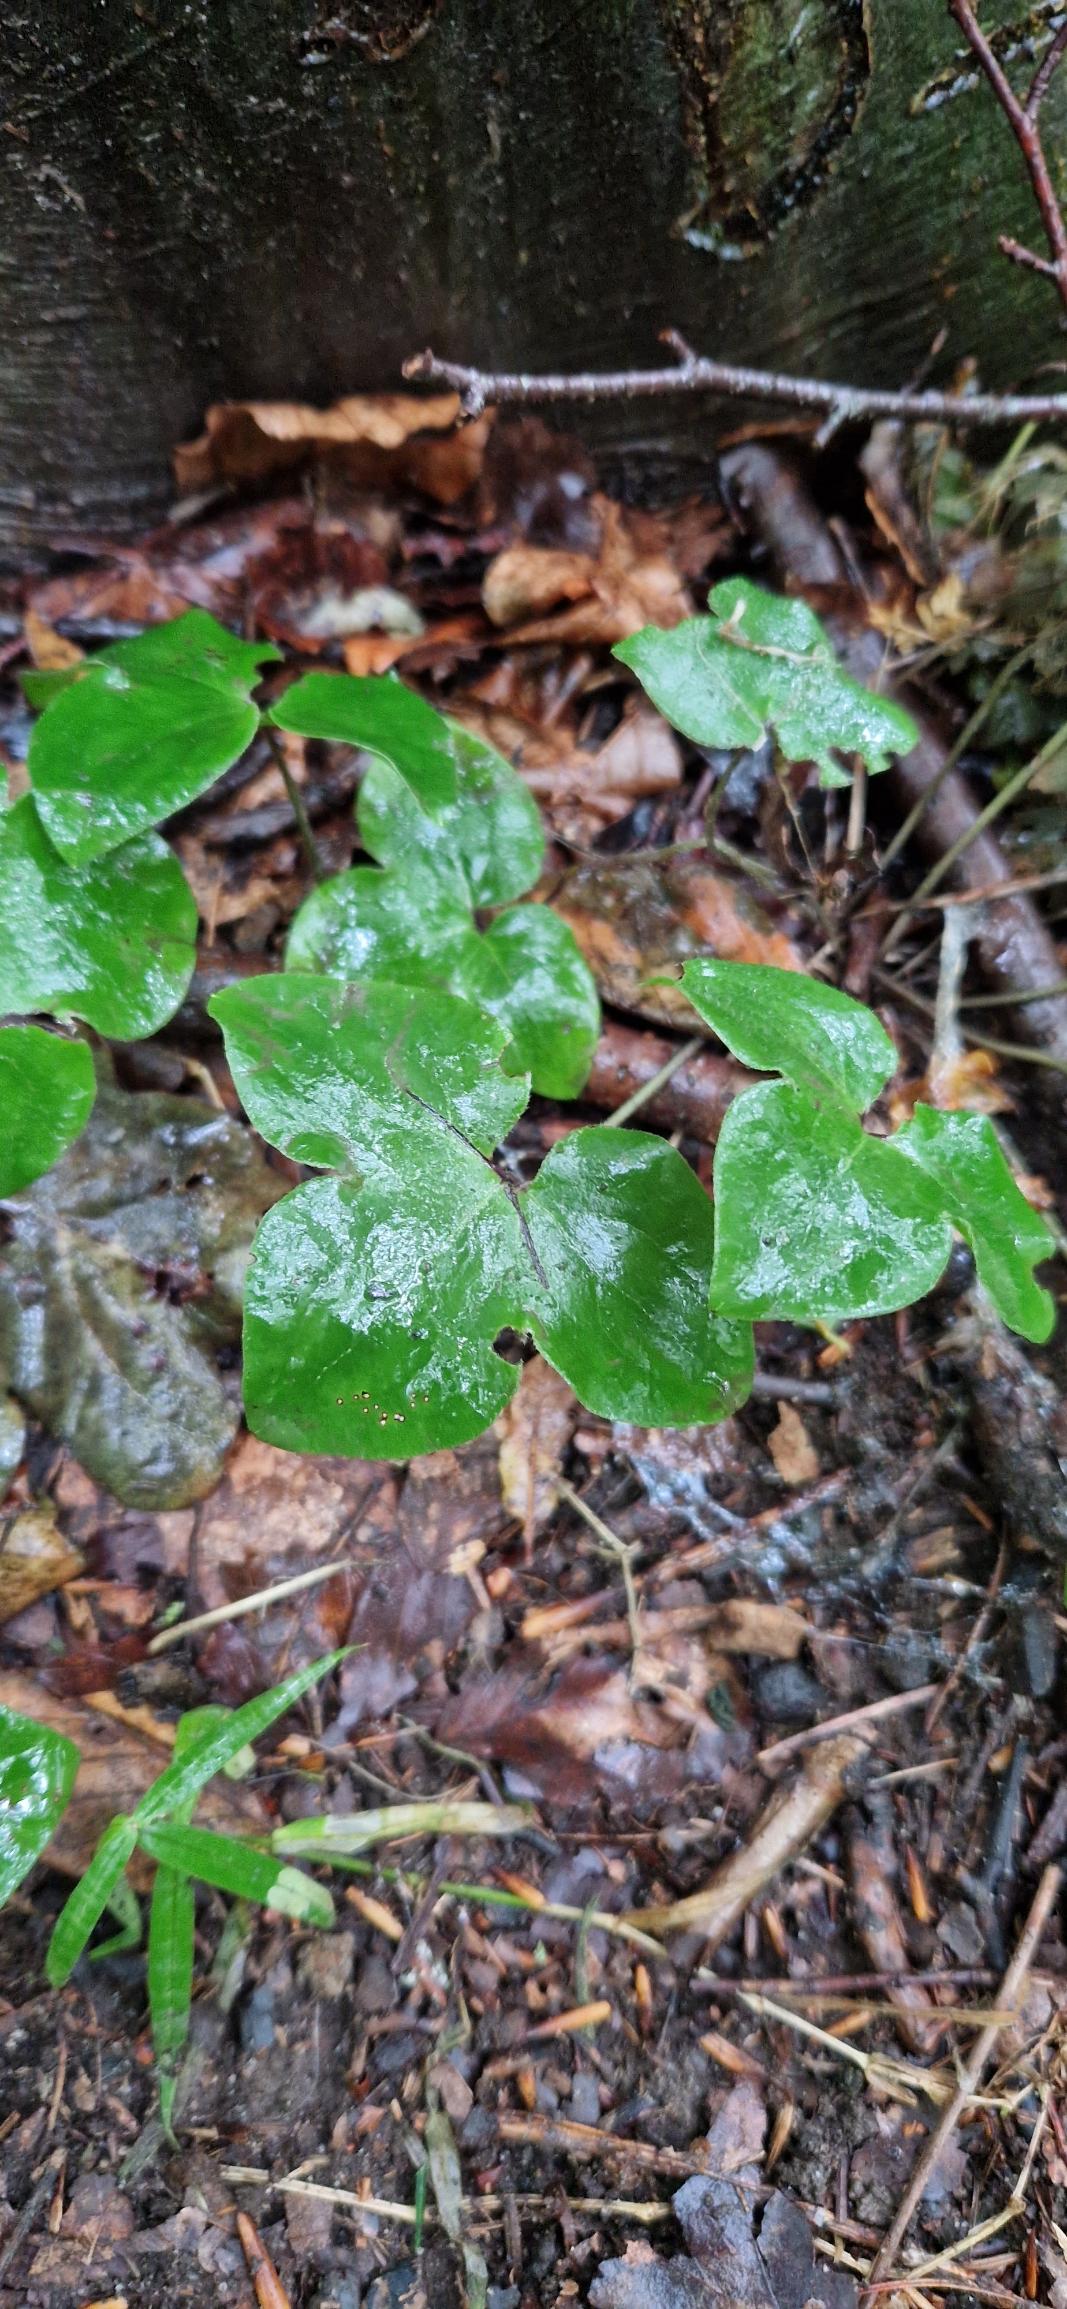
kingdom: Plantae
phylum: Tracheophyta
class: Magnoliopsida
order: Ranunculales
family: Ranunculaceae
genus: Hepatica
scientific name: Hepatica nobilis
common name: Blå anemone
